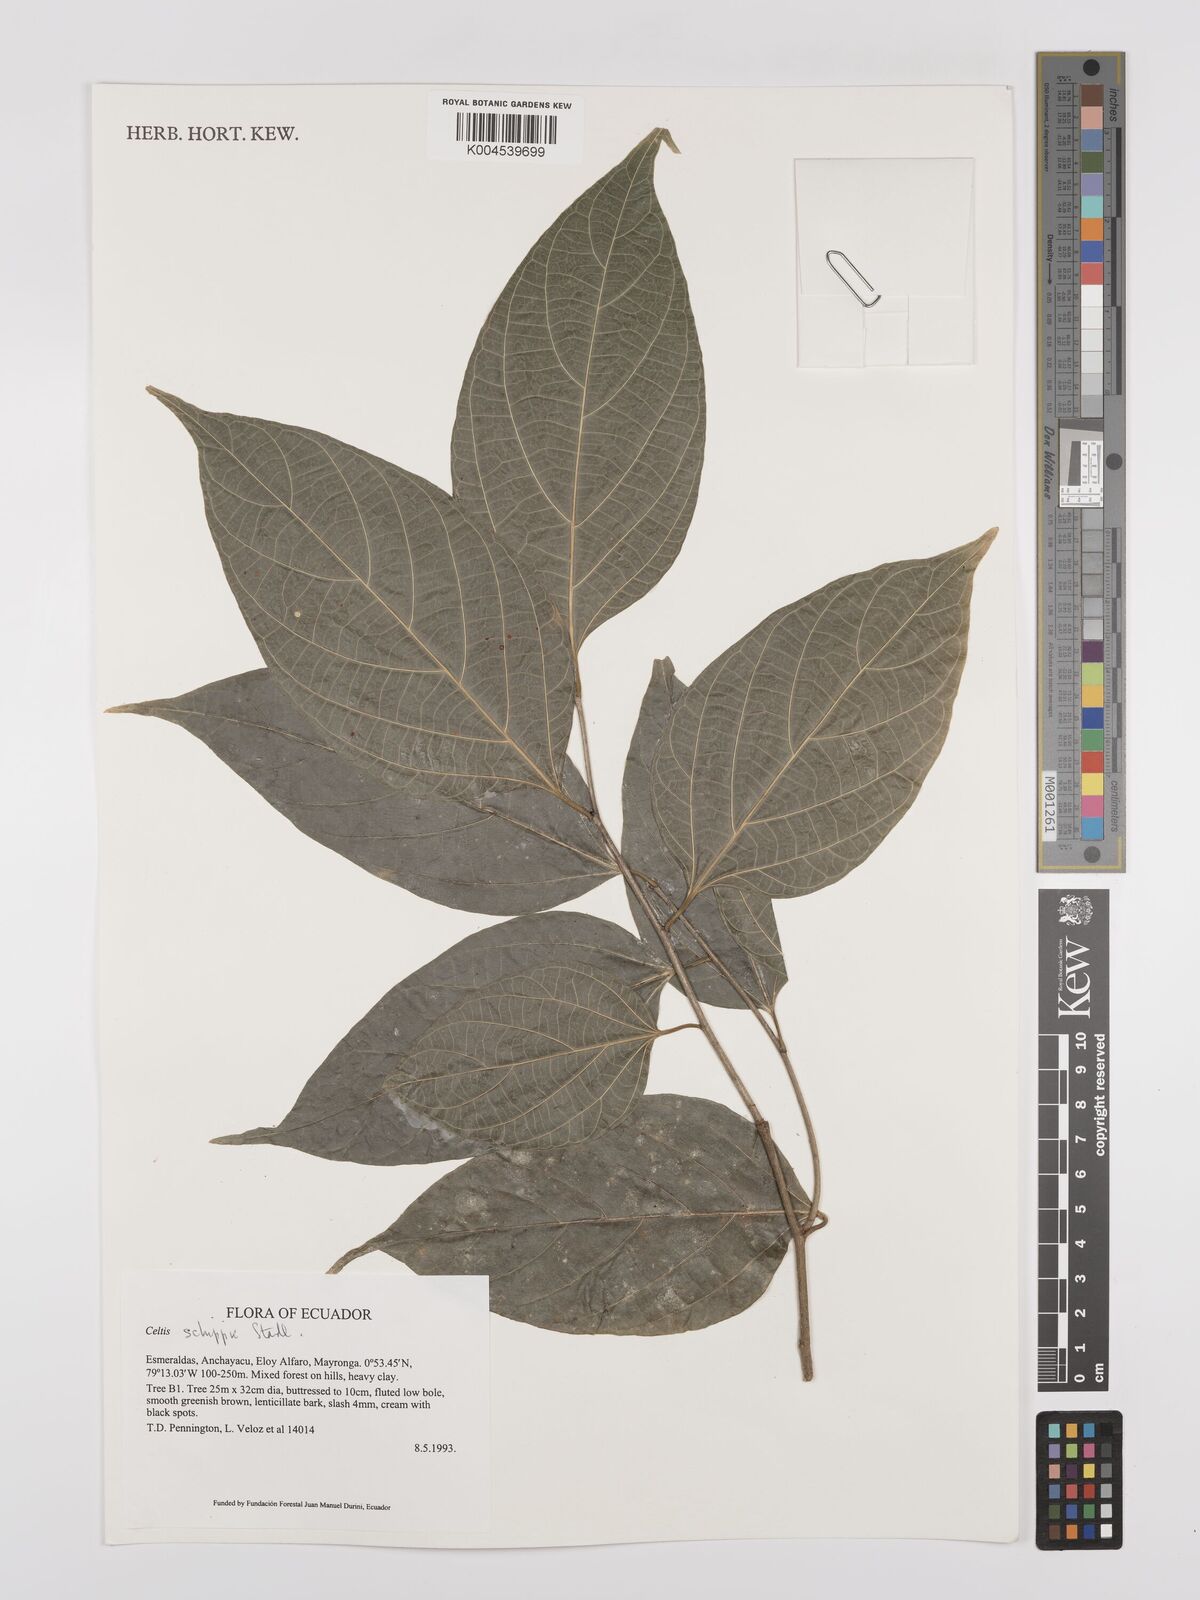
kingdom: Plantae
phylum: Tracheophyta
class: Magnoliopsida
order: Rosales
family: Cannabaceae
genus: Celtis
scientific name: Celtis schippii
